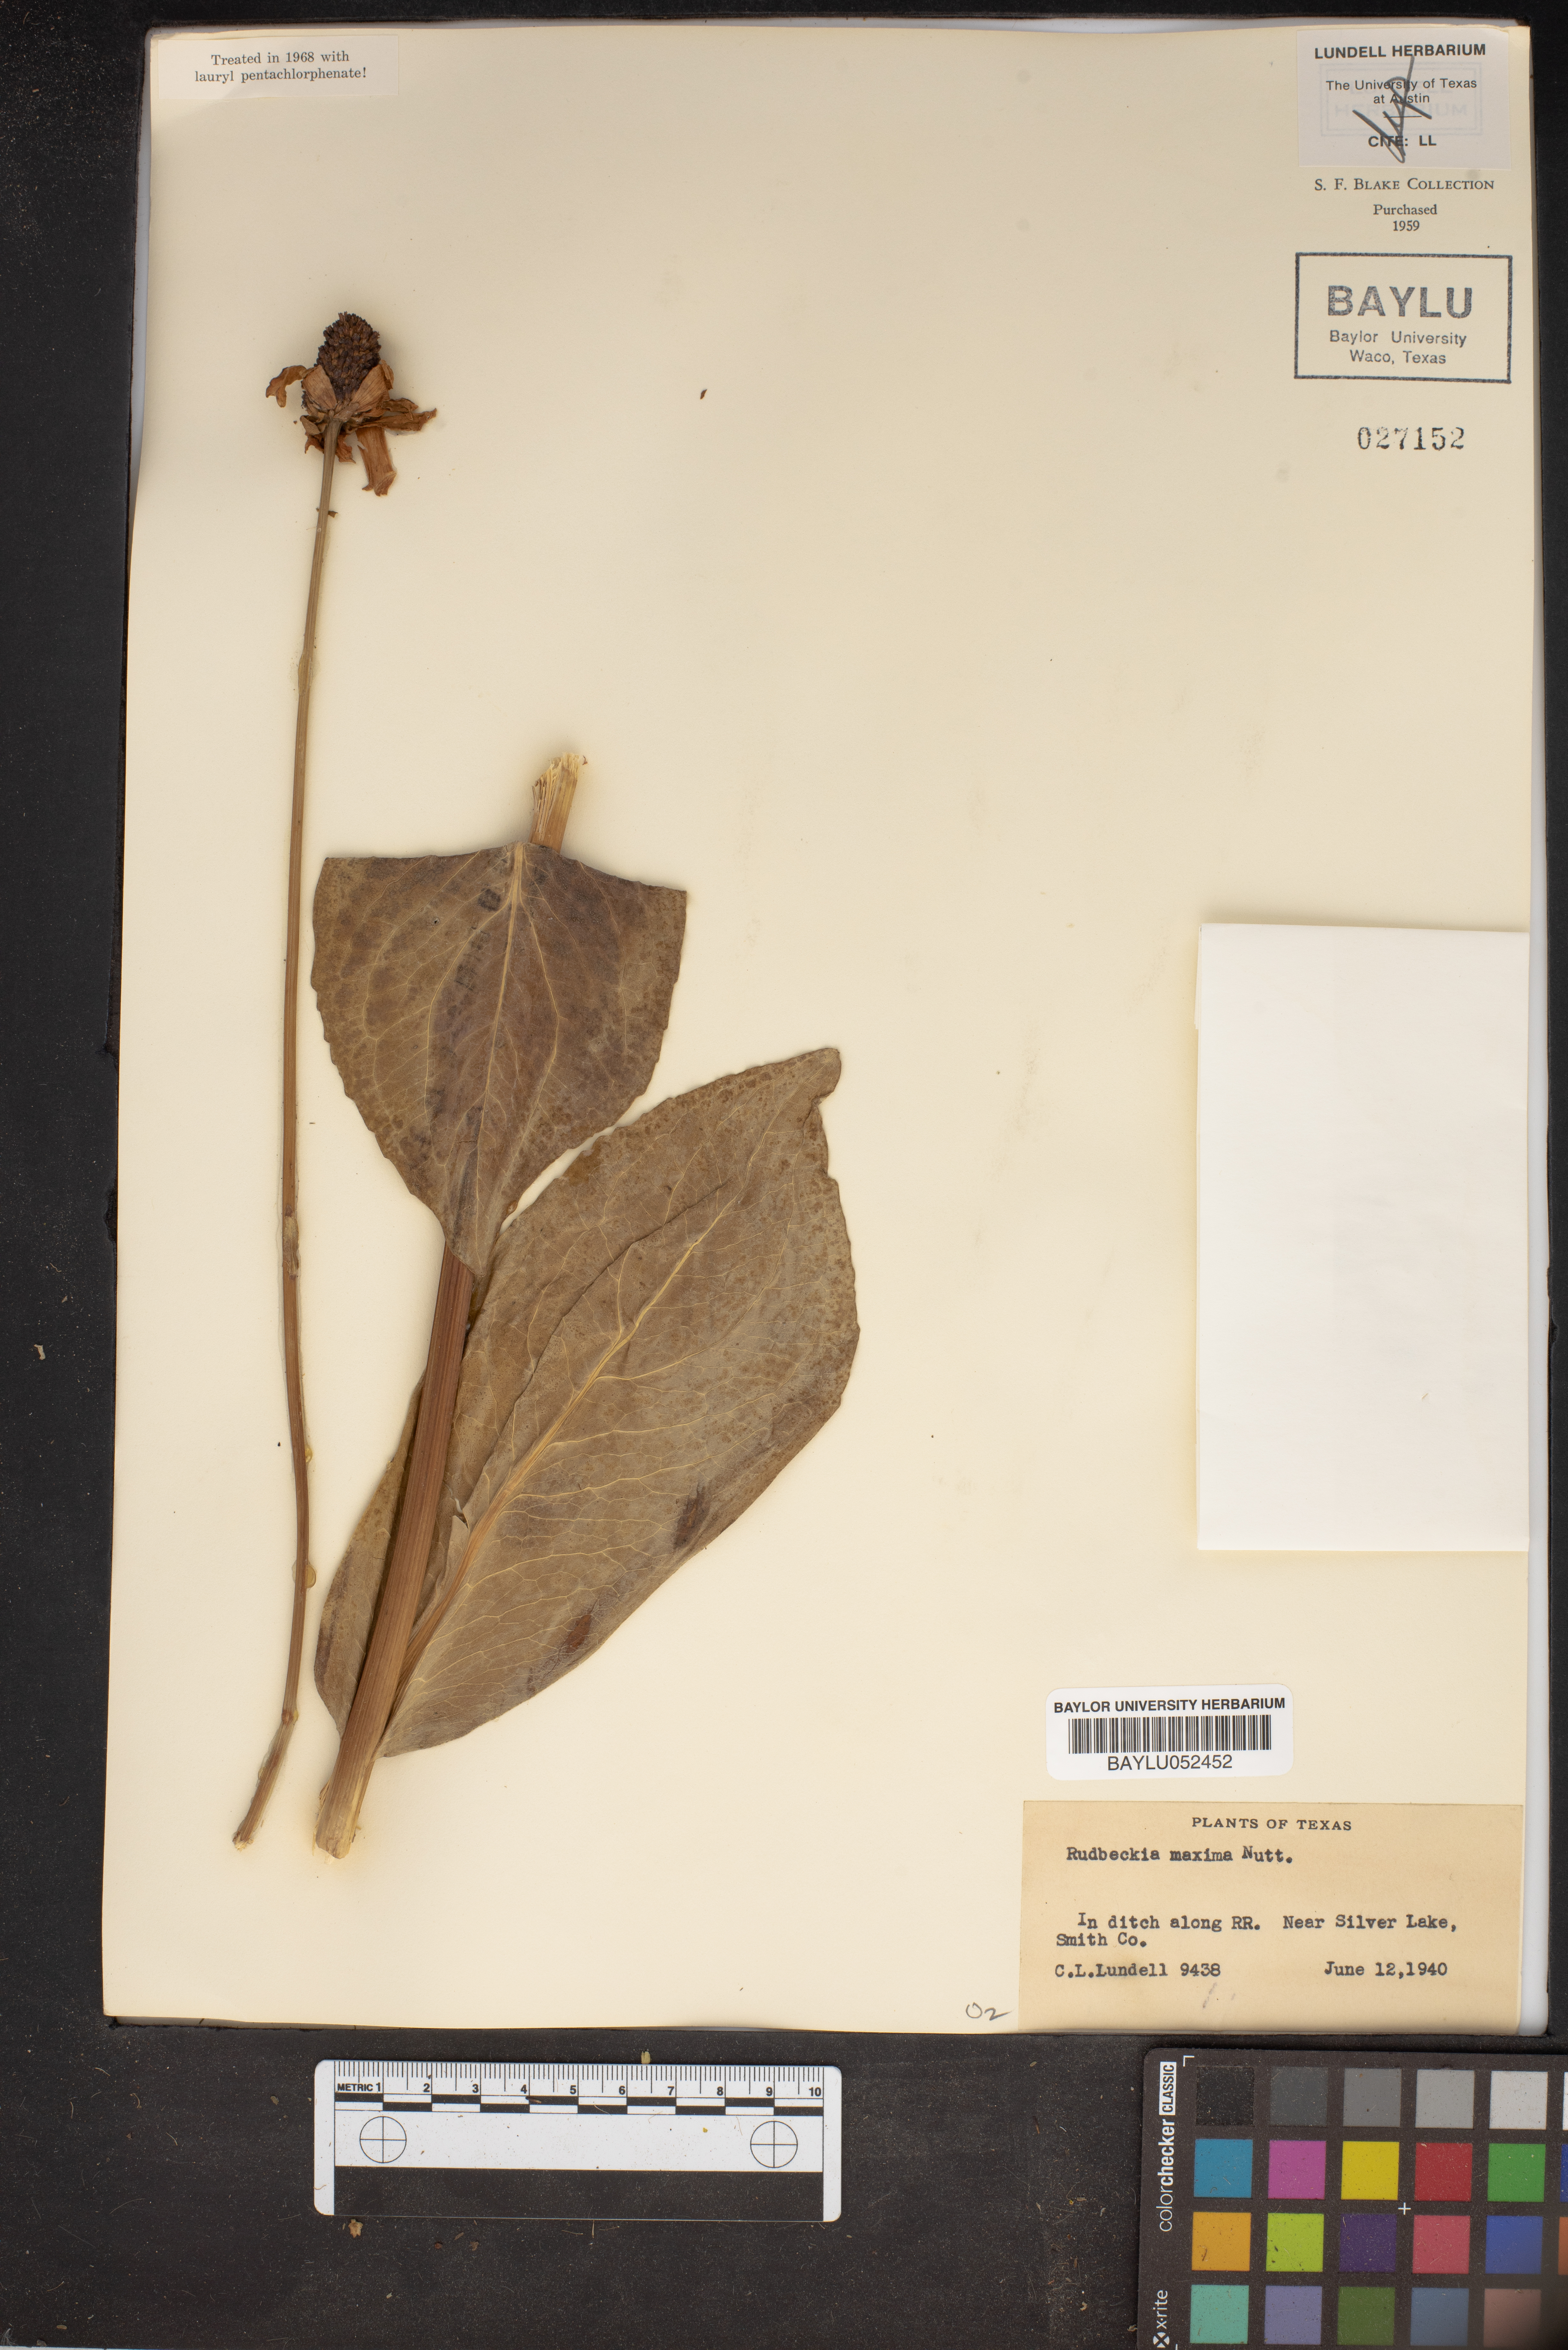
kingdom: Plantae
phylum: Tracheophyta
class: Magnoliopsida
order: Asterales
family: Asteraceae
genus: Rudbeckia
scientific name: Rudbeckia maxima
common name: Cabbage coneflower
